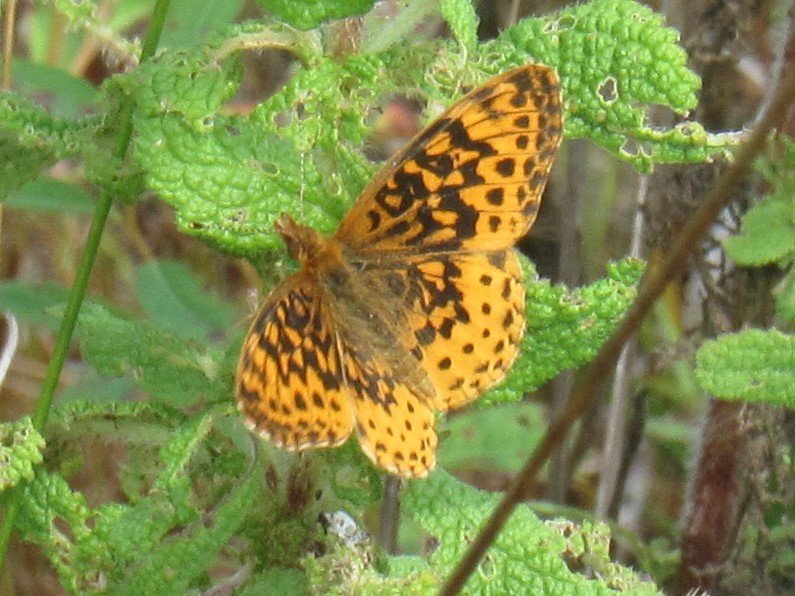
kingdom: Animalia
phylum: Arthropoda
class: Insecta
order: Lepidoptera
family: Nymphalidae
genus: Clossiana
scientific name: Clossiana toddi
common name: Meadow Fritillary
